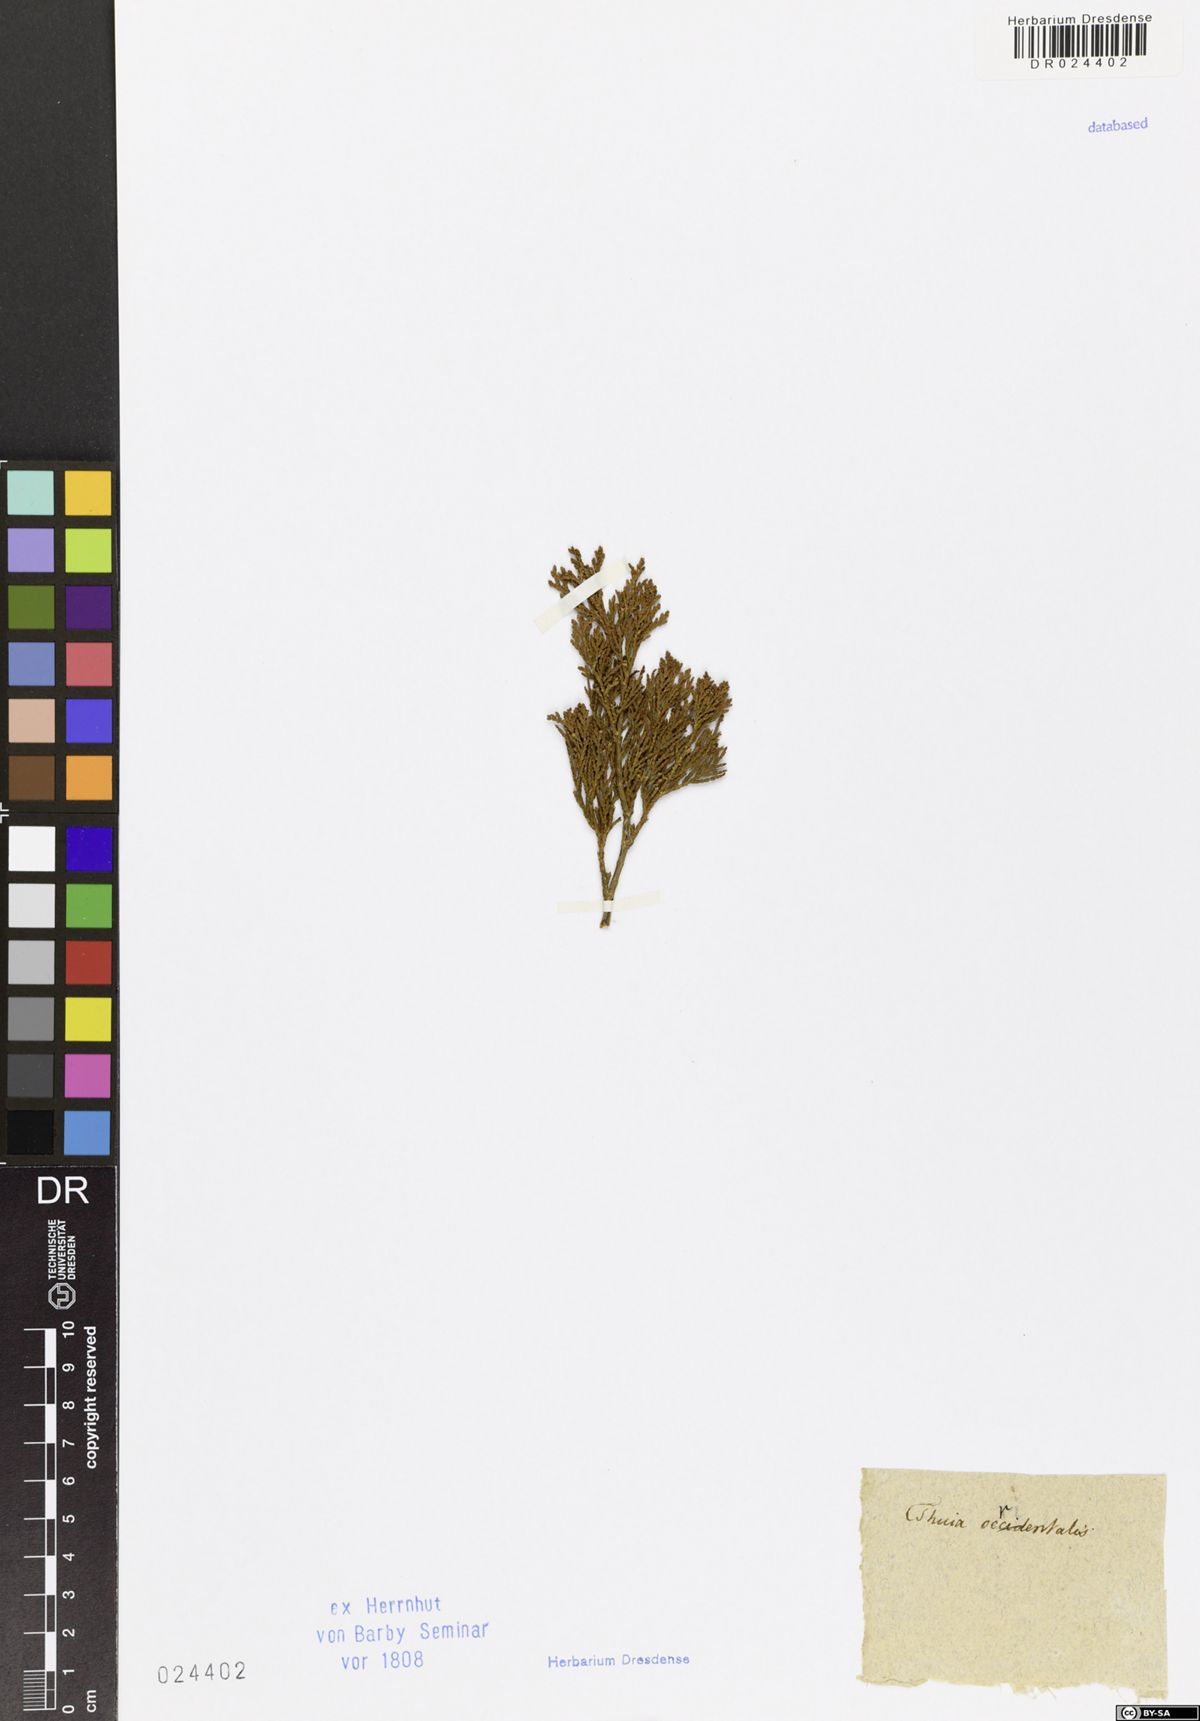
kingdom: Plantae
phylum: Tracheophyta
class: Pinopsida
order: Pinales
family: Cupressaceae
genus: Platycladus
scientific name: Platycladus orientalis
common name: Chinese thuja
